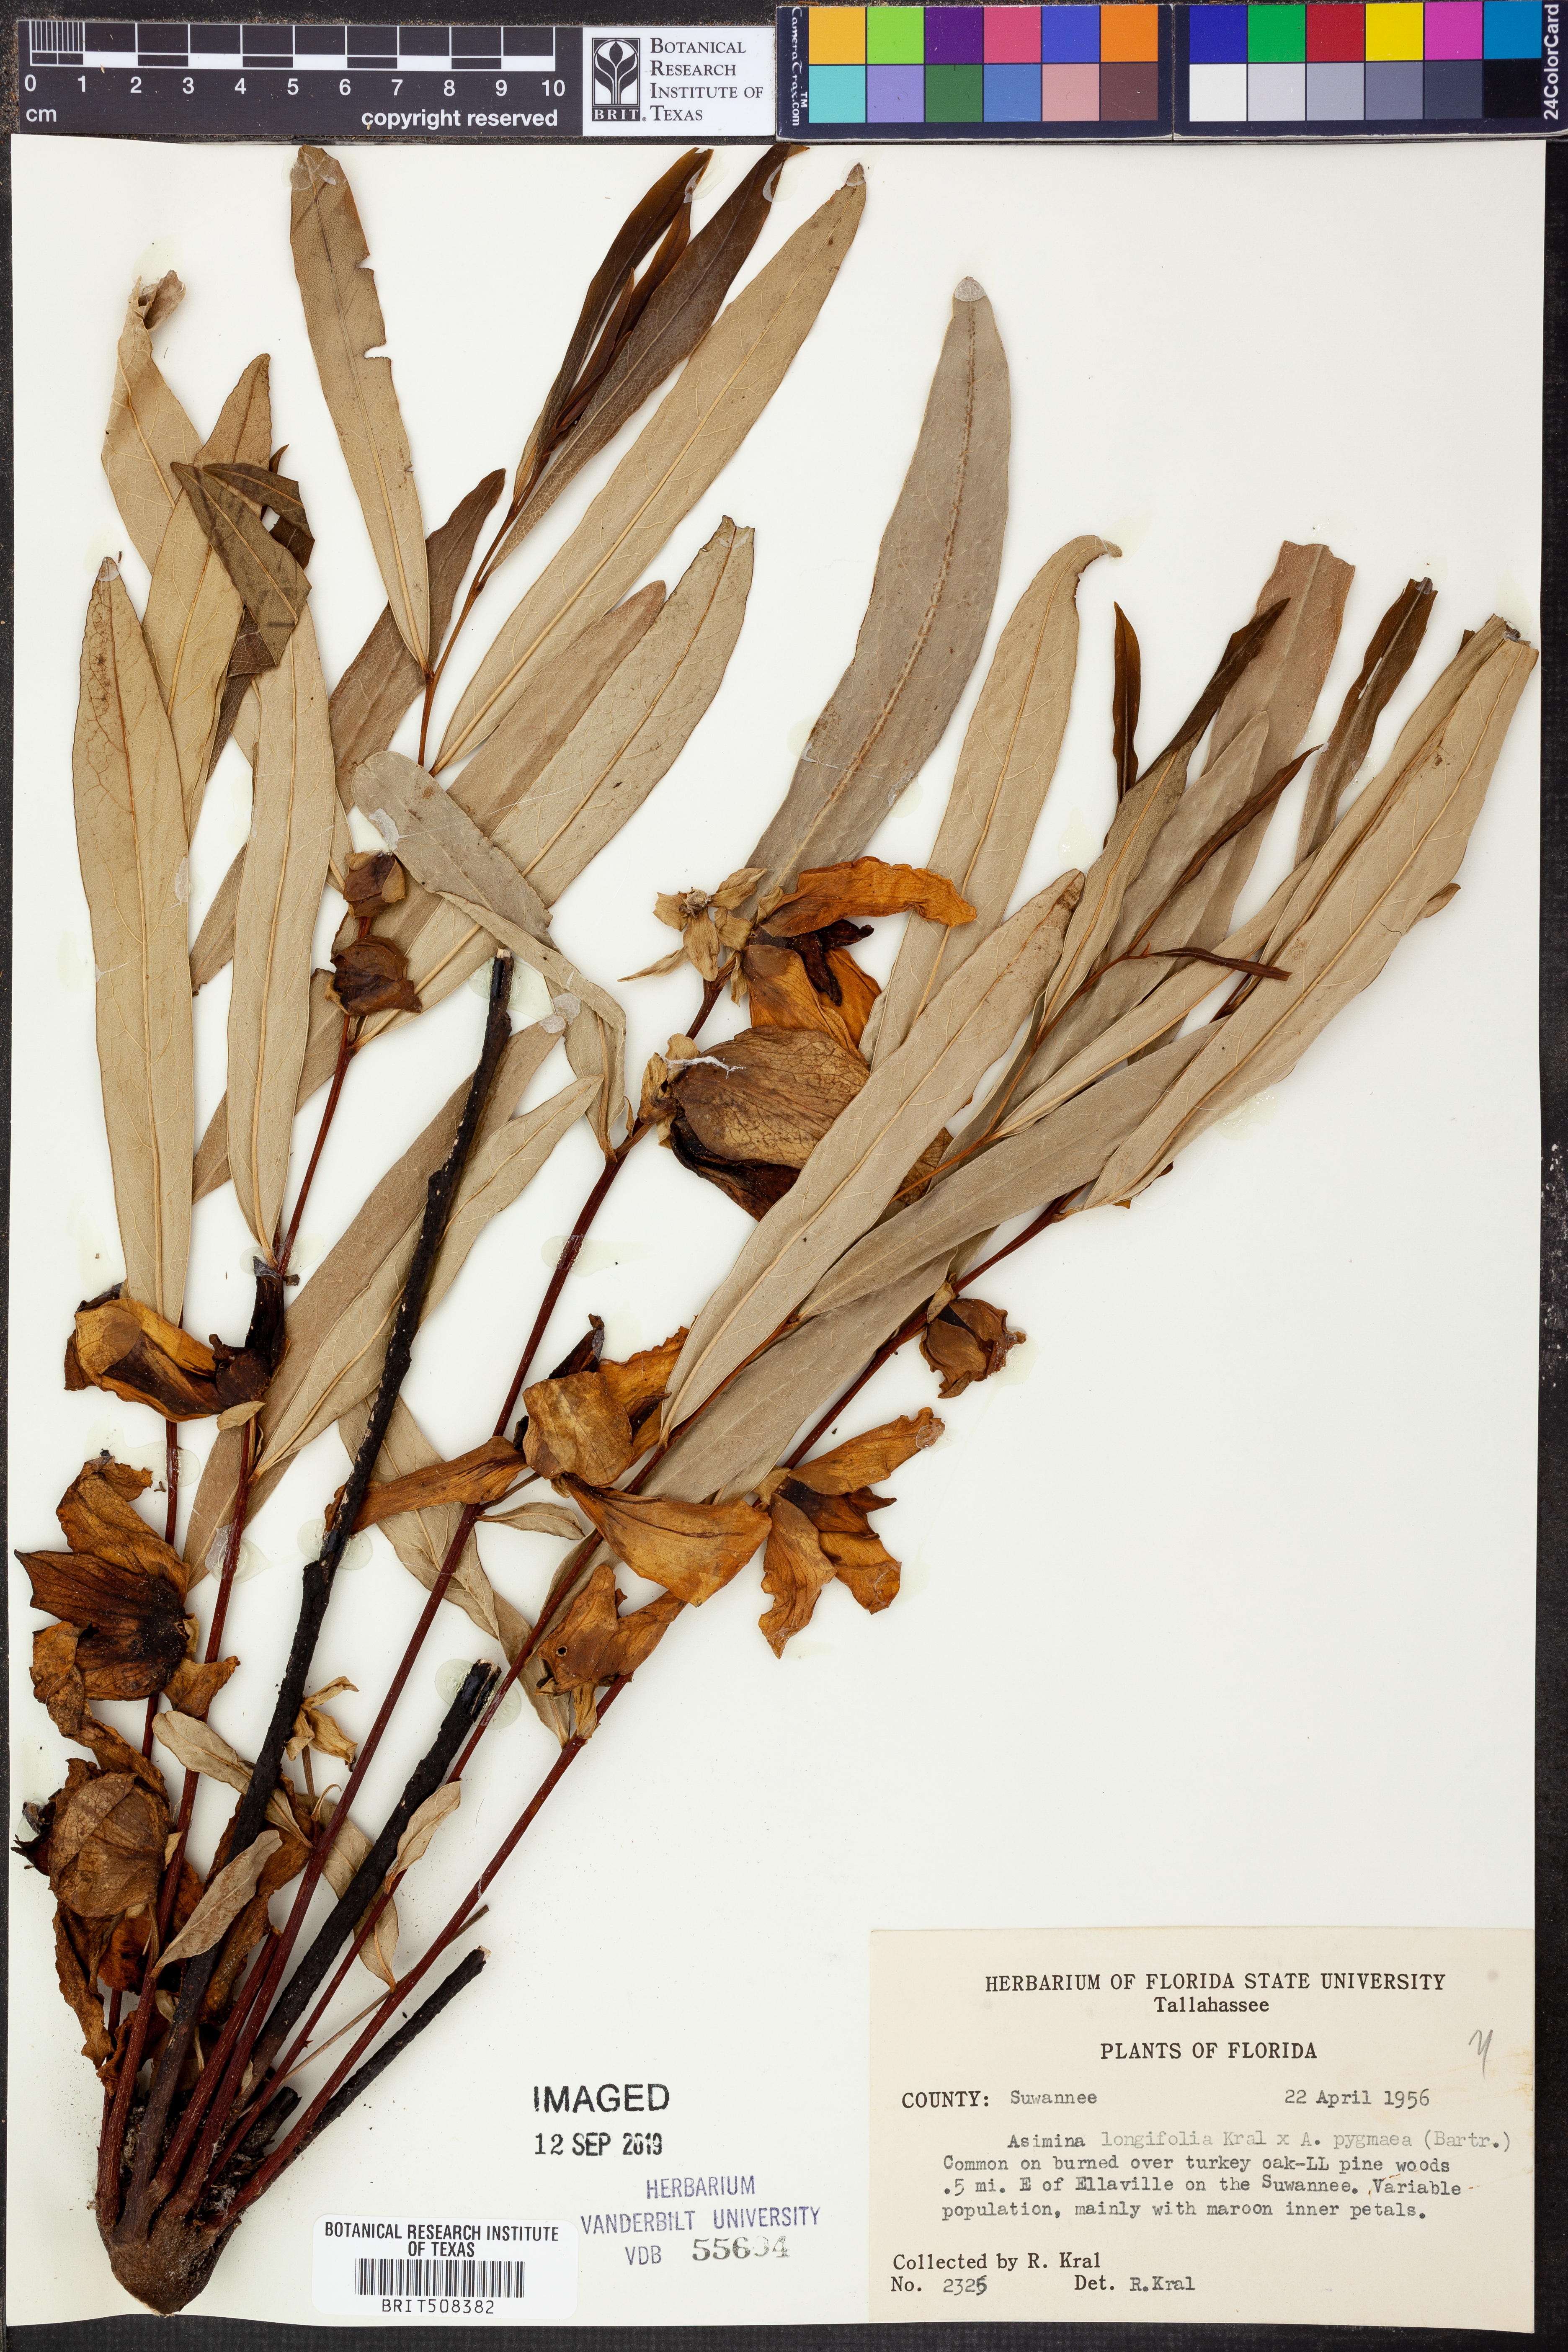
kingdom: Plantae
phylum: Tracheophyta
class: Magnoliopsida
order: Magnoliales
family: Annonaceae
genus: Asimina
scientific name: Asimina longifolia
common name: Polecatbush
